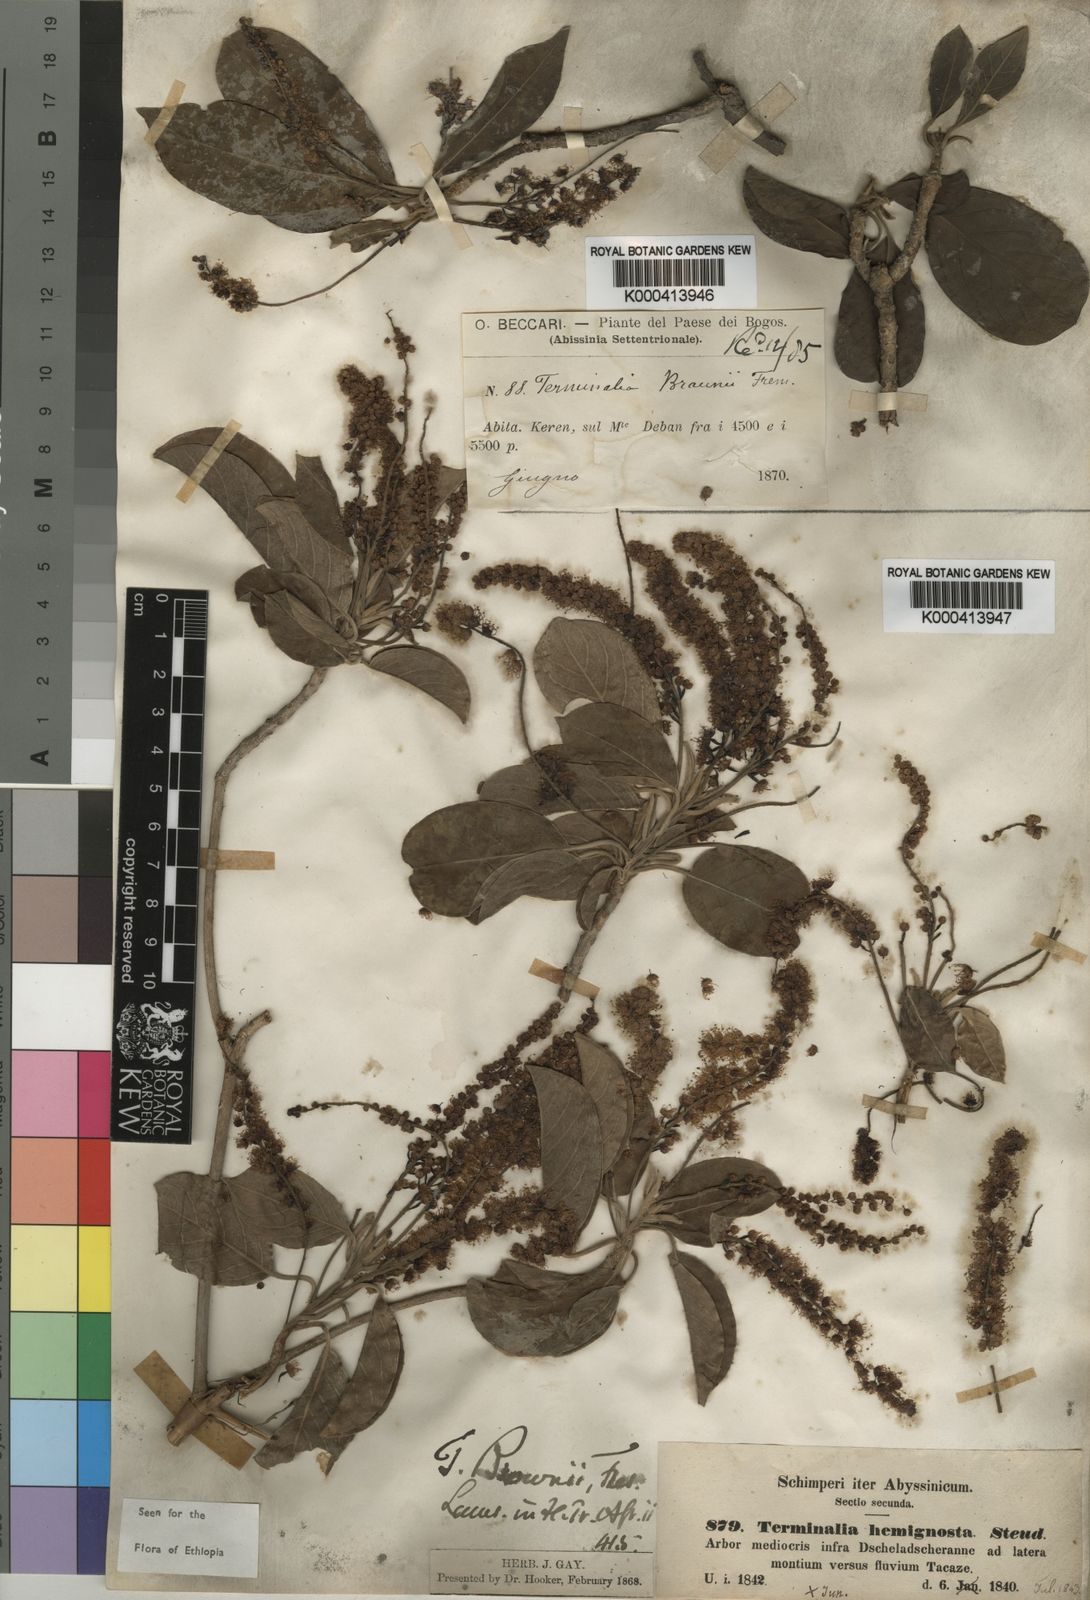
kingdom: Plantae
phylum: Tracheophyta
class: Magnoliopsida
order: Myrtales
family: Combretaceae
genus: Terminalia
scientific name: Terminalia brownii
